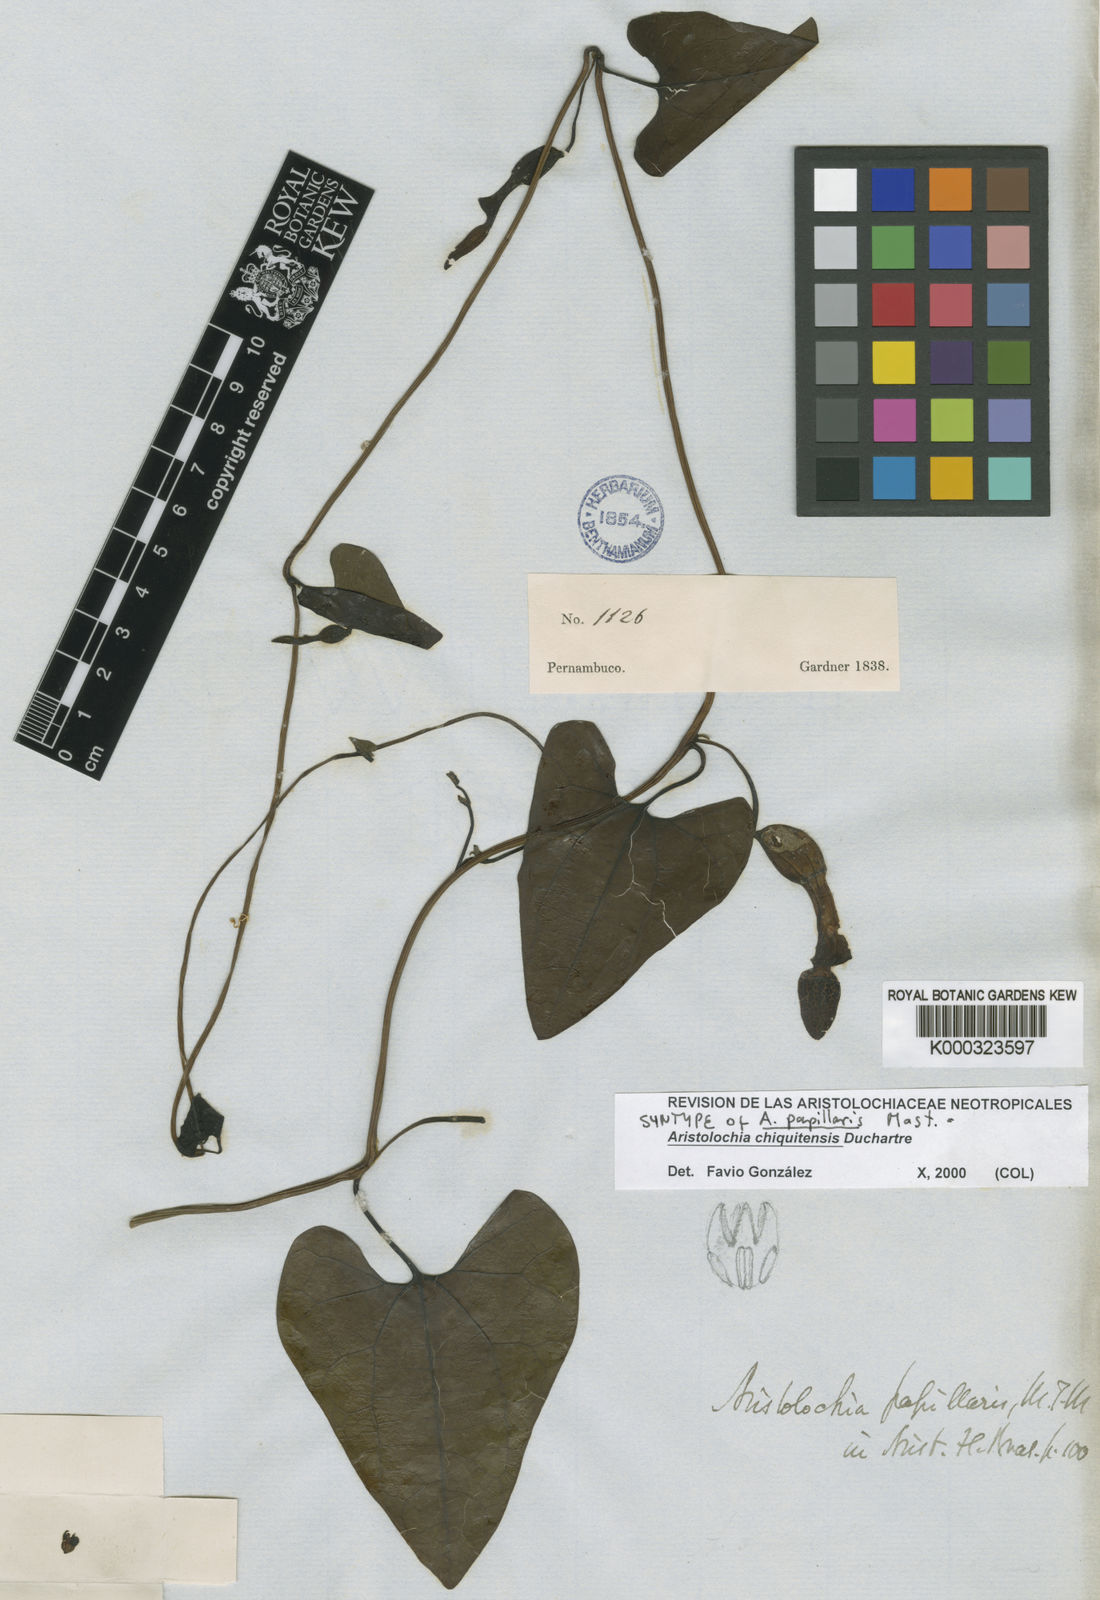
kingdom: Plantae
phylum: Tracheophyta
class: Magnoliopsida
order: Piperales
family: Aristolochiaceae
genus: Aristolochia
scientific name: Aristolochia chiquitensis
